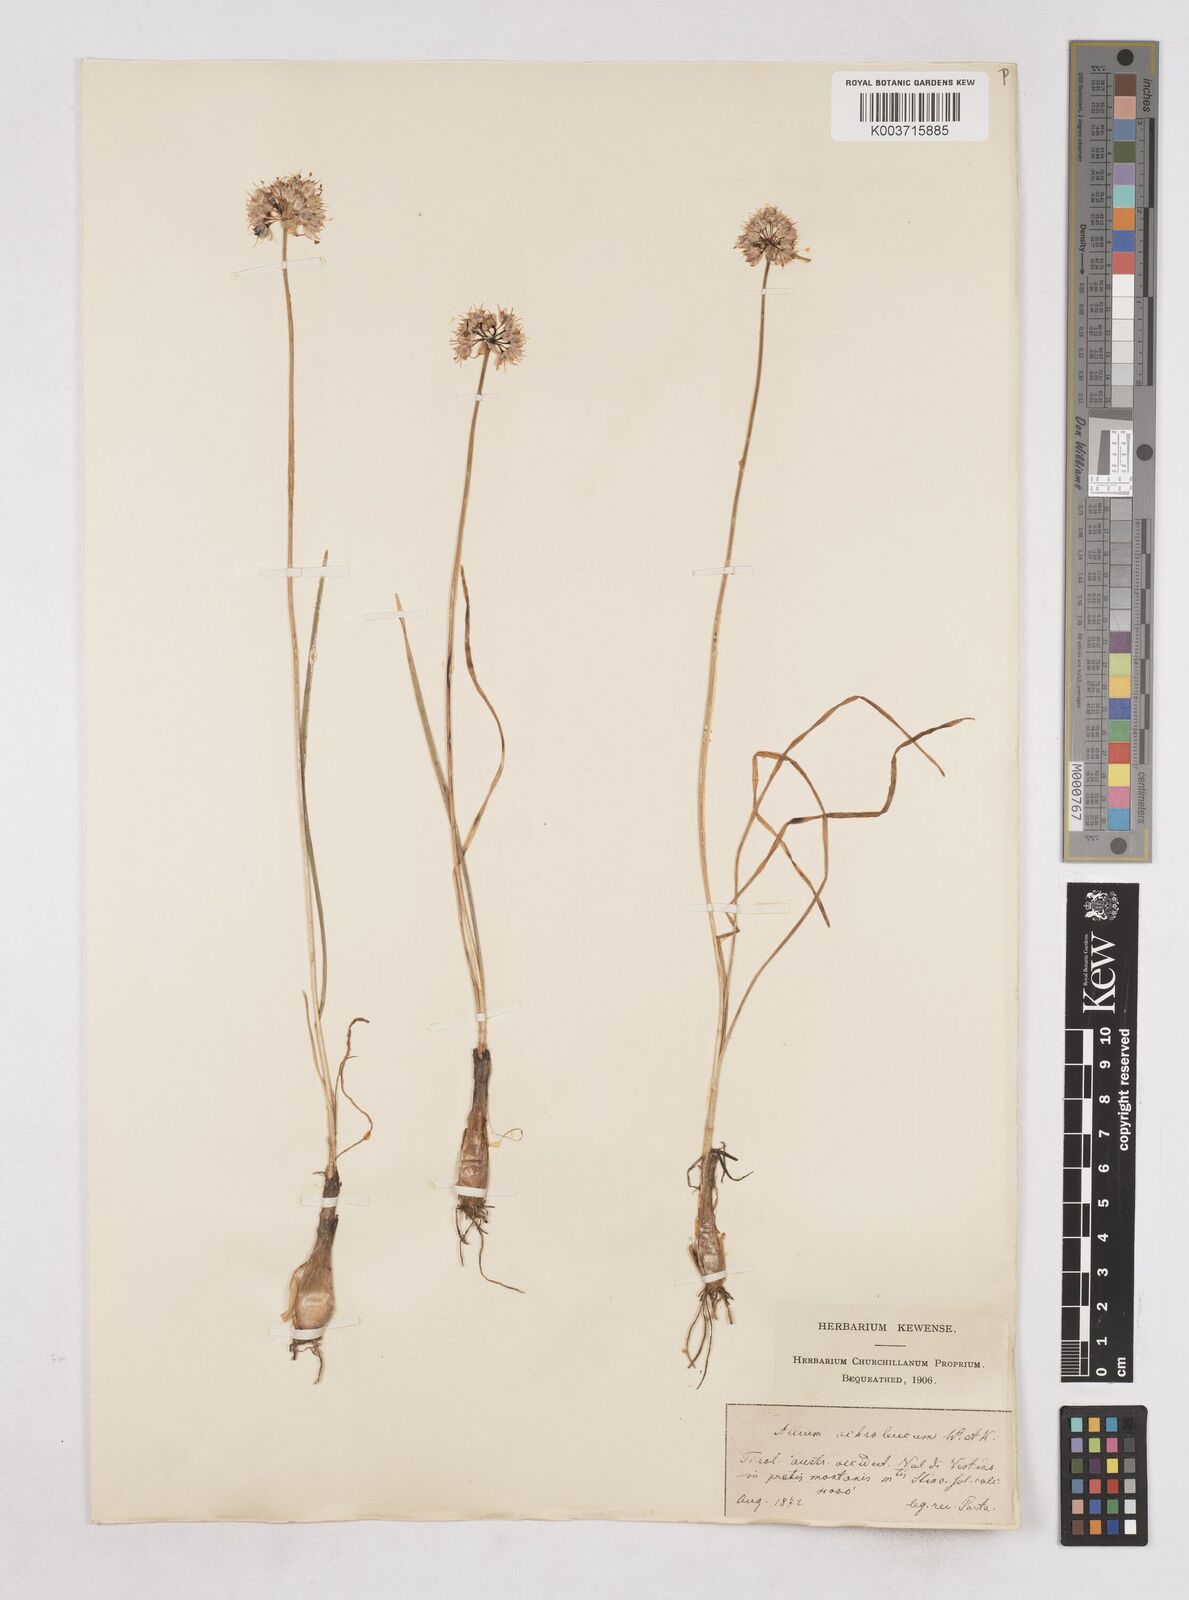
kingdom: Plantae
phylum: Tracheophyta
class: Liliopsida
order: Asparagales
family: Amaryllidaceae
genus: Allium
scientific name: Allium ericetorum
